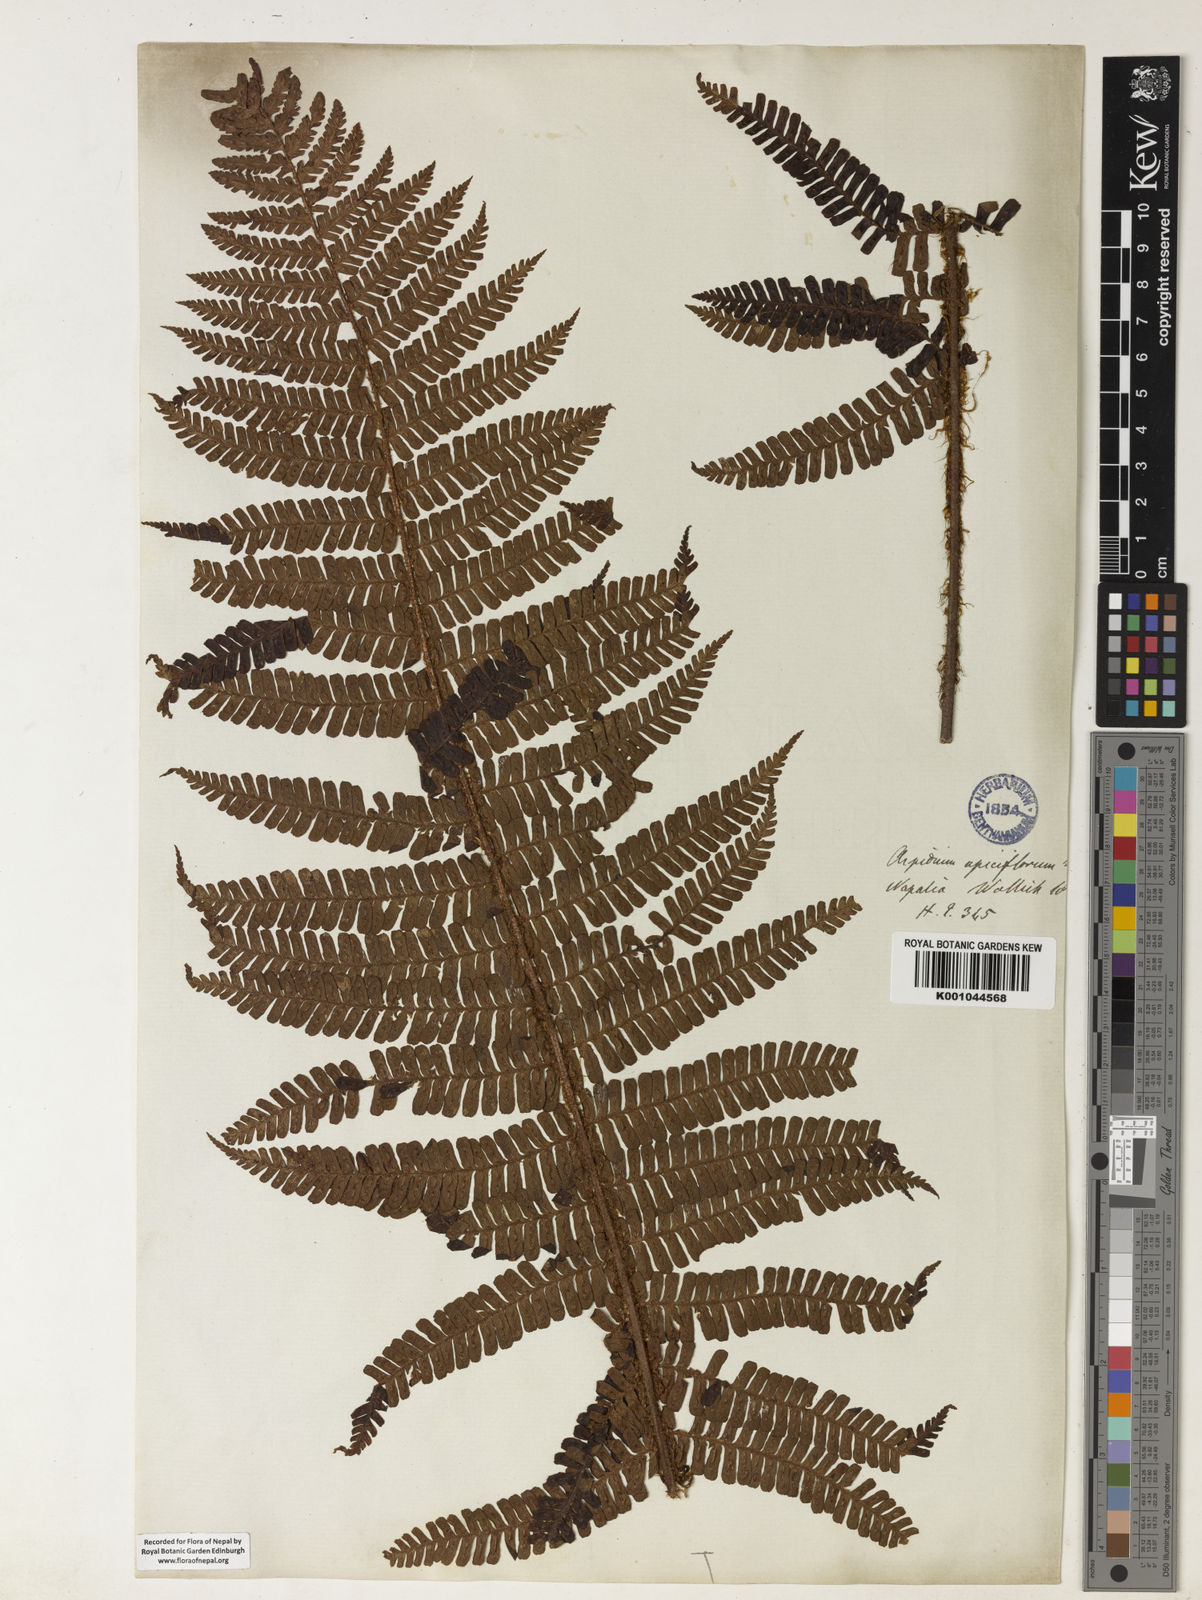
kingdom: Plantae
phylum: Tracheophyta
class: Polypodiopsida
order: Polypodiales
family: Dryopteridaceae
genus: Dryopteris
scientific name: Dryopteris apiciflora
